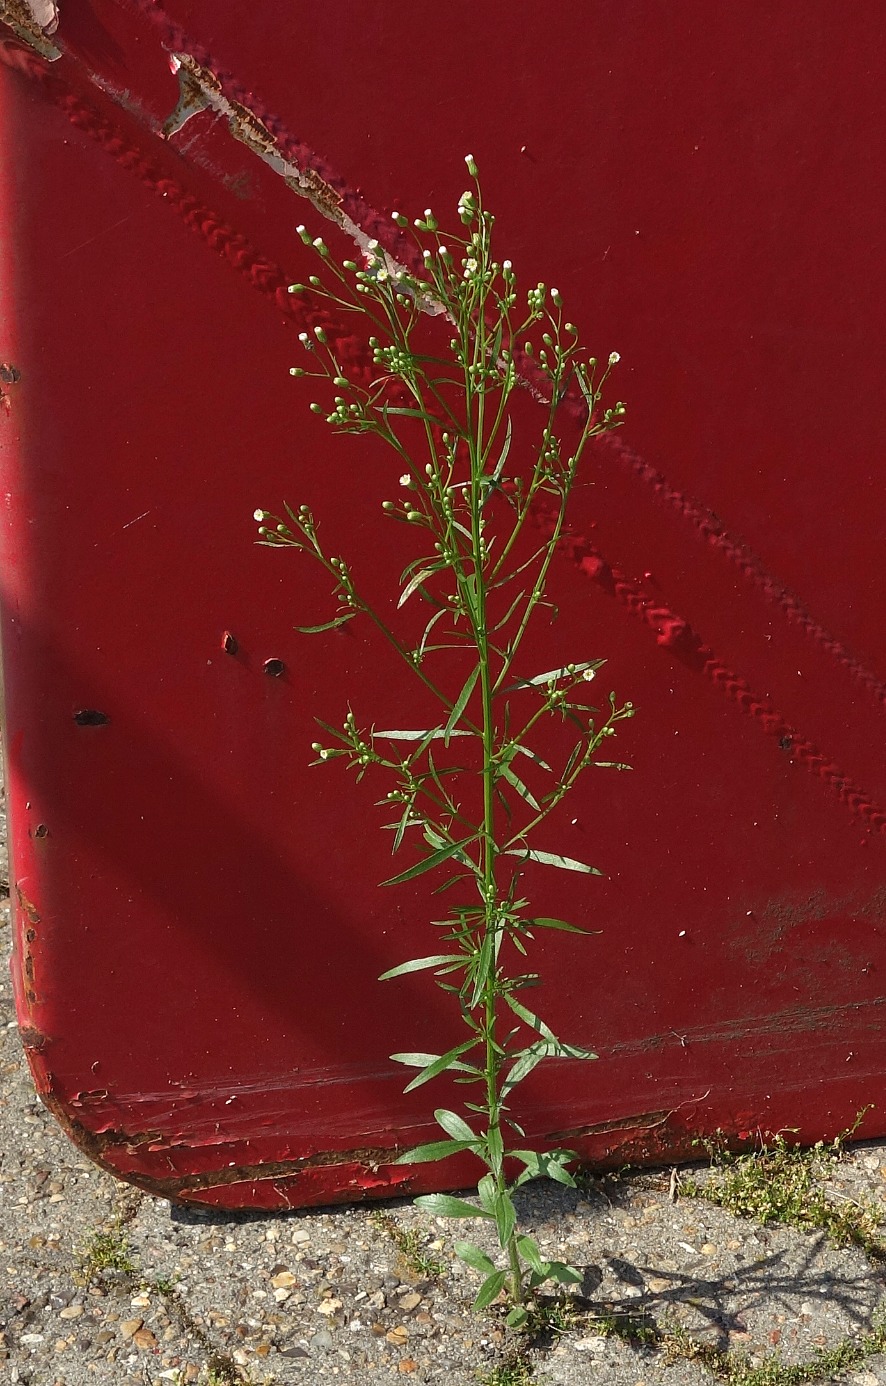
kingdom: Plantae
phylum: Tracheophyta
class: Magnoliopsida
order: Asterales
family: Asteraceae
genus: Erigeron
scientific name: Erigeron canadensis
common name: Kanadisk bakkestjerne
